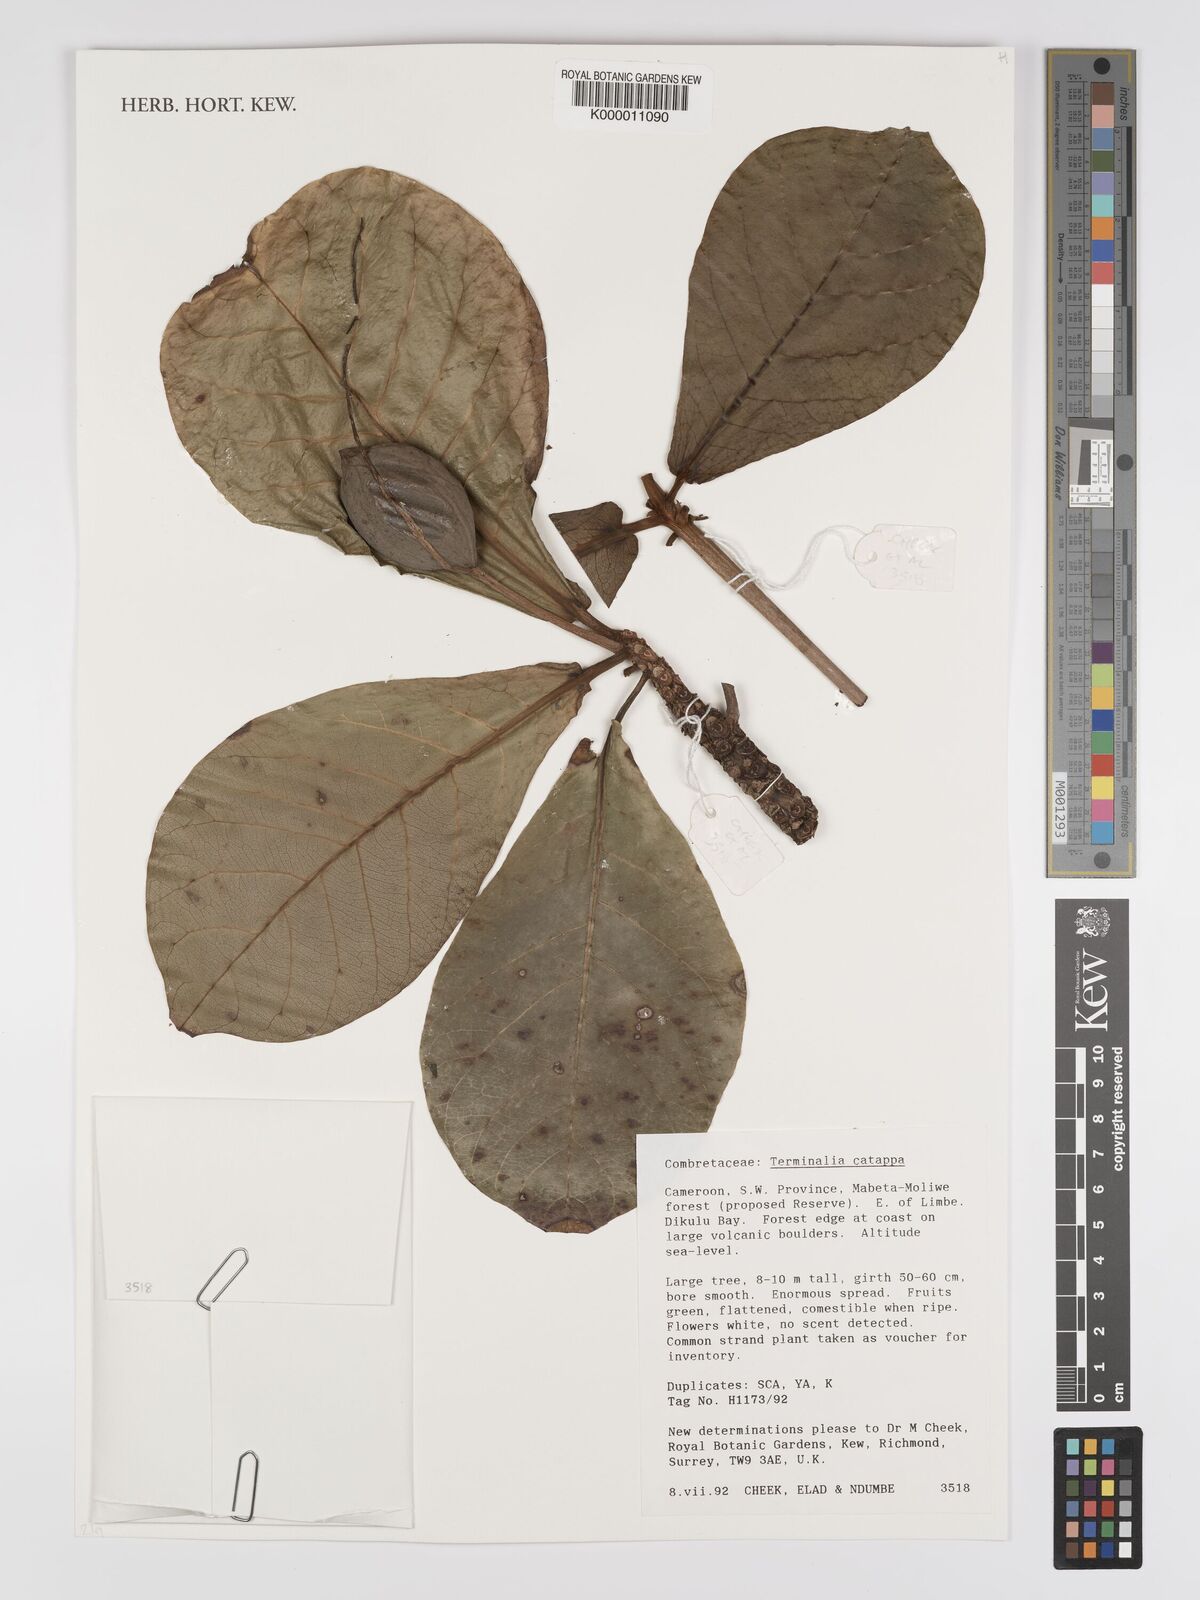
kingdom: Plantae
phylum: Tracheophyta
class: Magnoliopsida
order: Myrtales
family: Combretaceae
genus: Terminalia
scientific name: Terminalia catappa
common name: Tropical almond
